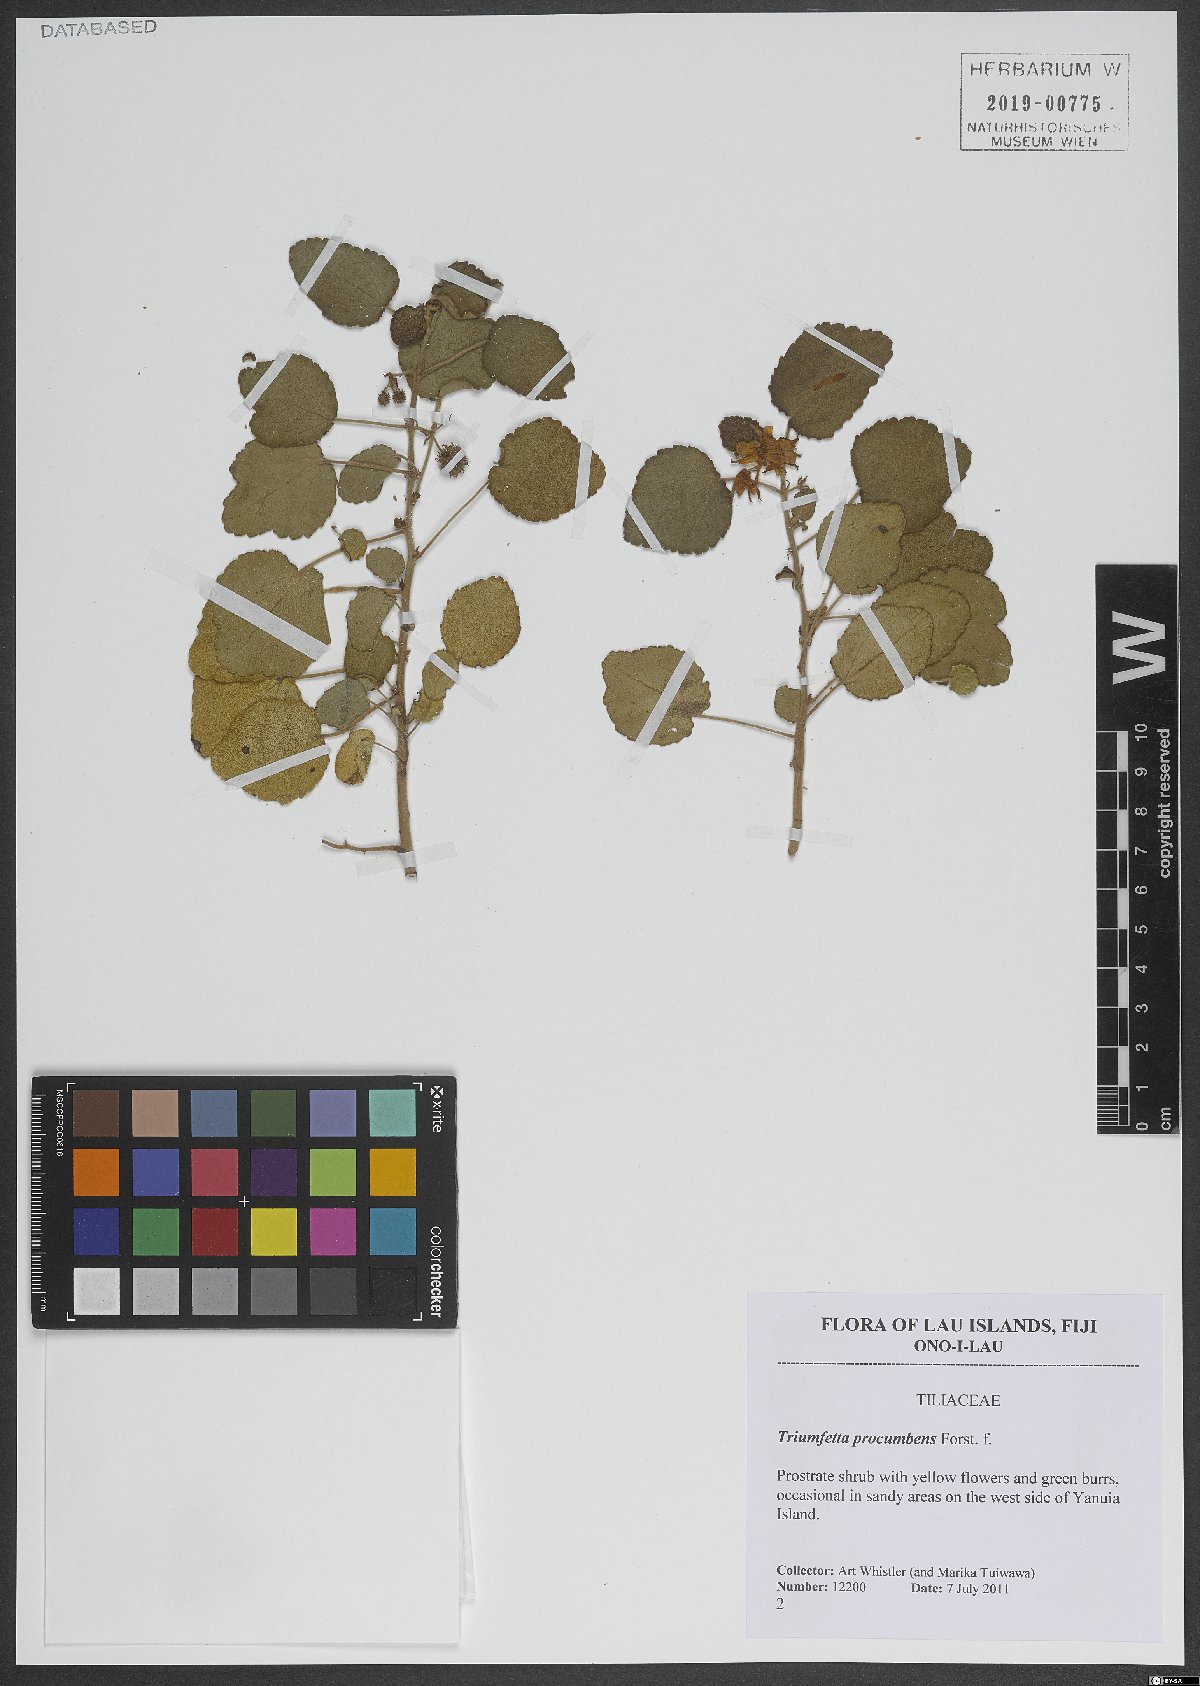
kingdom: Plantae
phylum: Tracheophyta
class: Magnoliopsida
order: Malvales
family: Malvaceae
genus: Triumfetta
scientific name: Triumfetta procumbens
